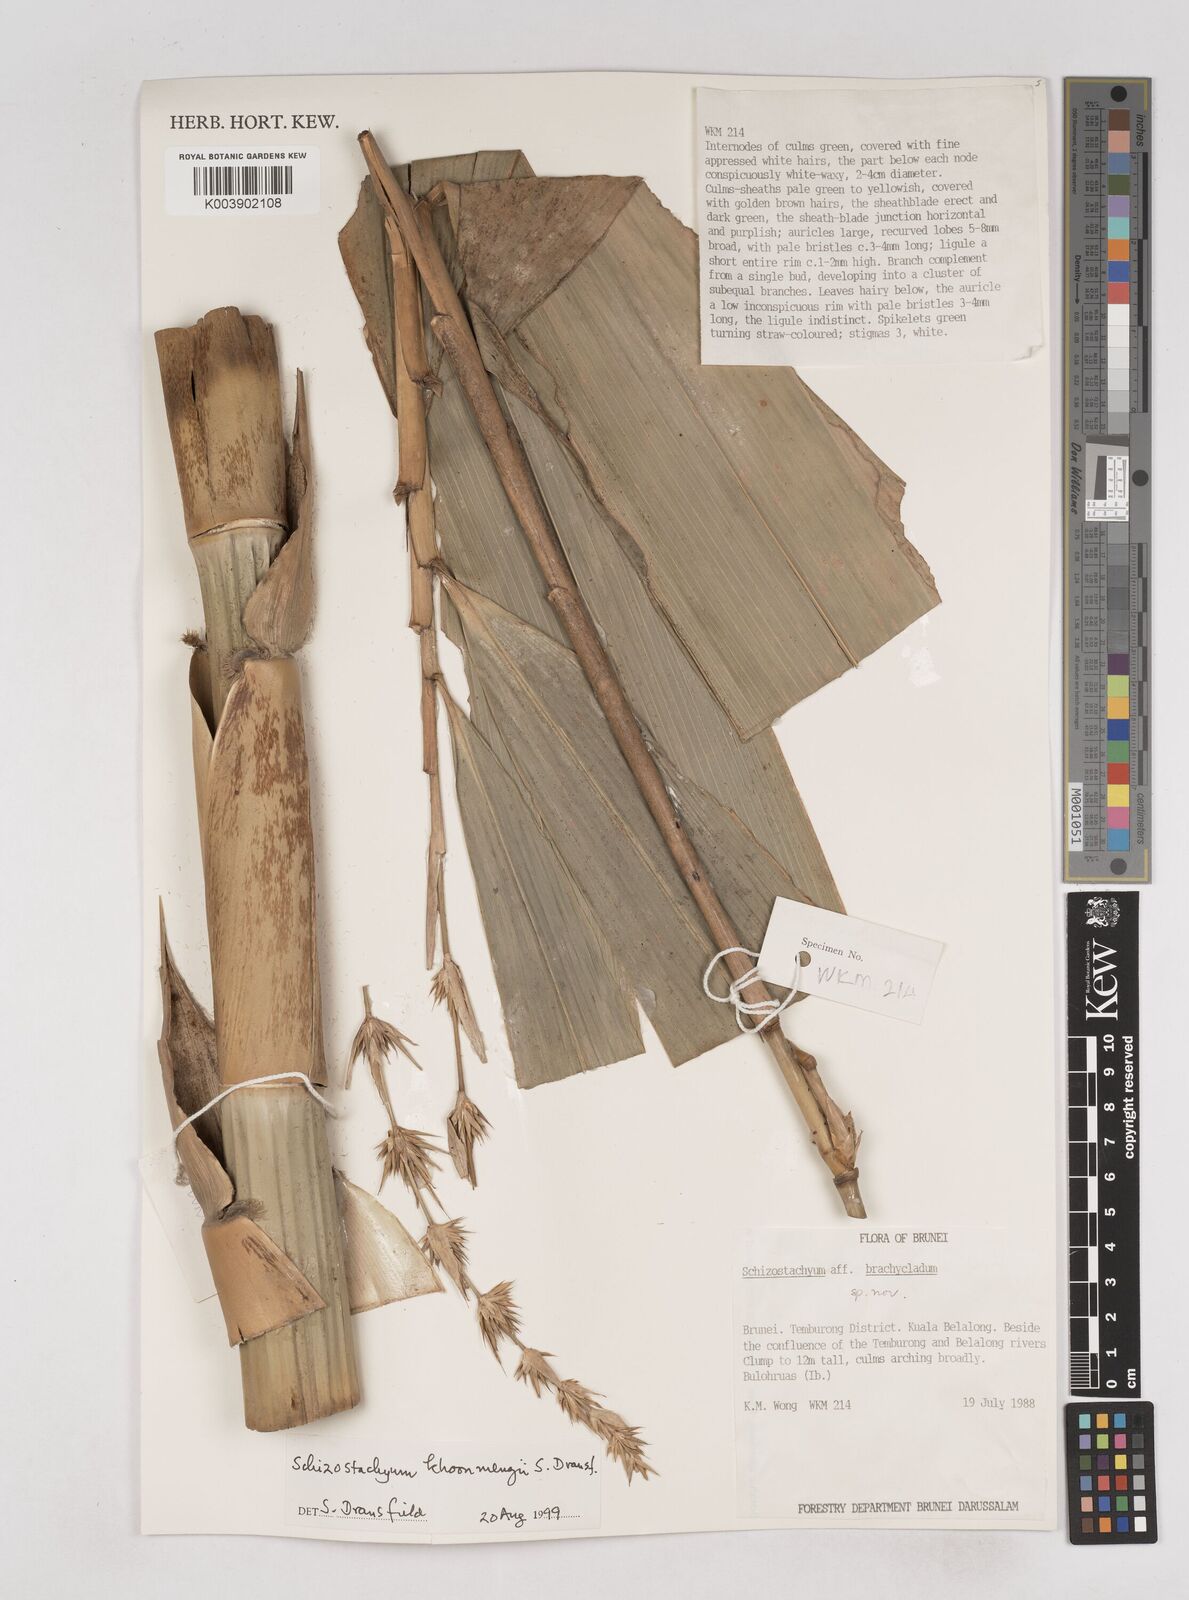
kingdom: Plantae
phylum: Tracheophyta
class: Liliopsida
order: Poales
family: Poaceae
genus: Schizostachyum
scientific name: Schizostachyum khoonmengii
